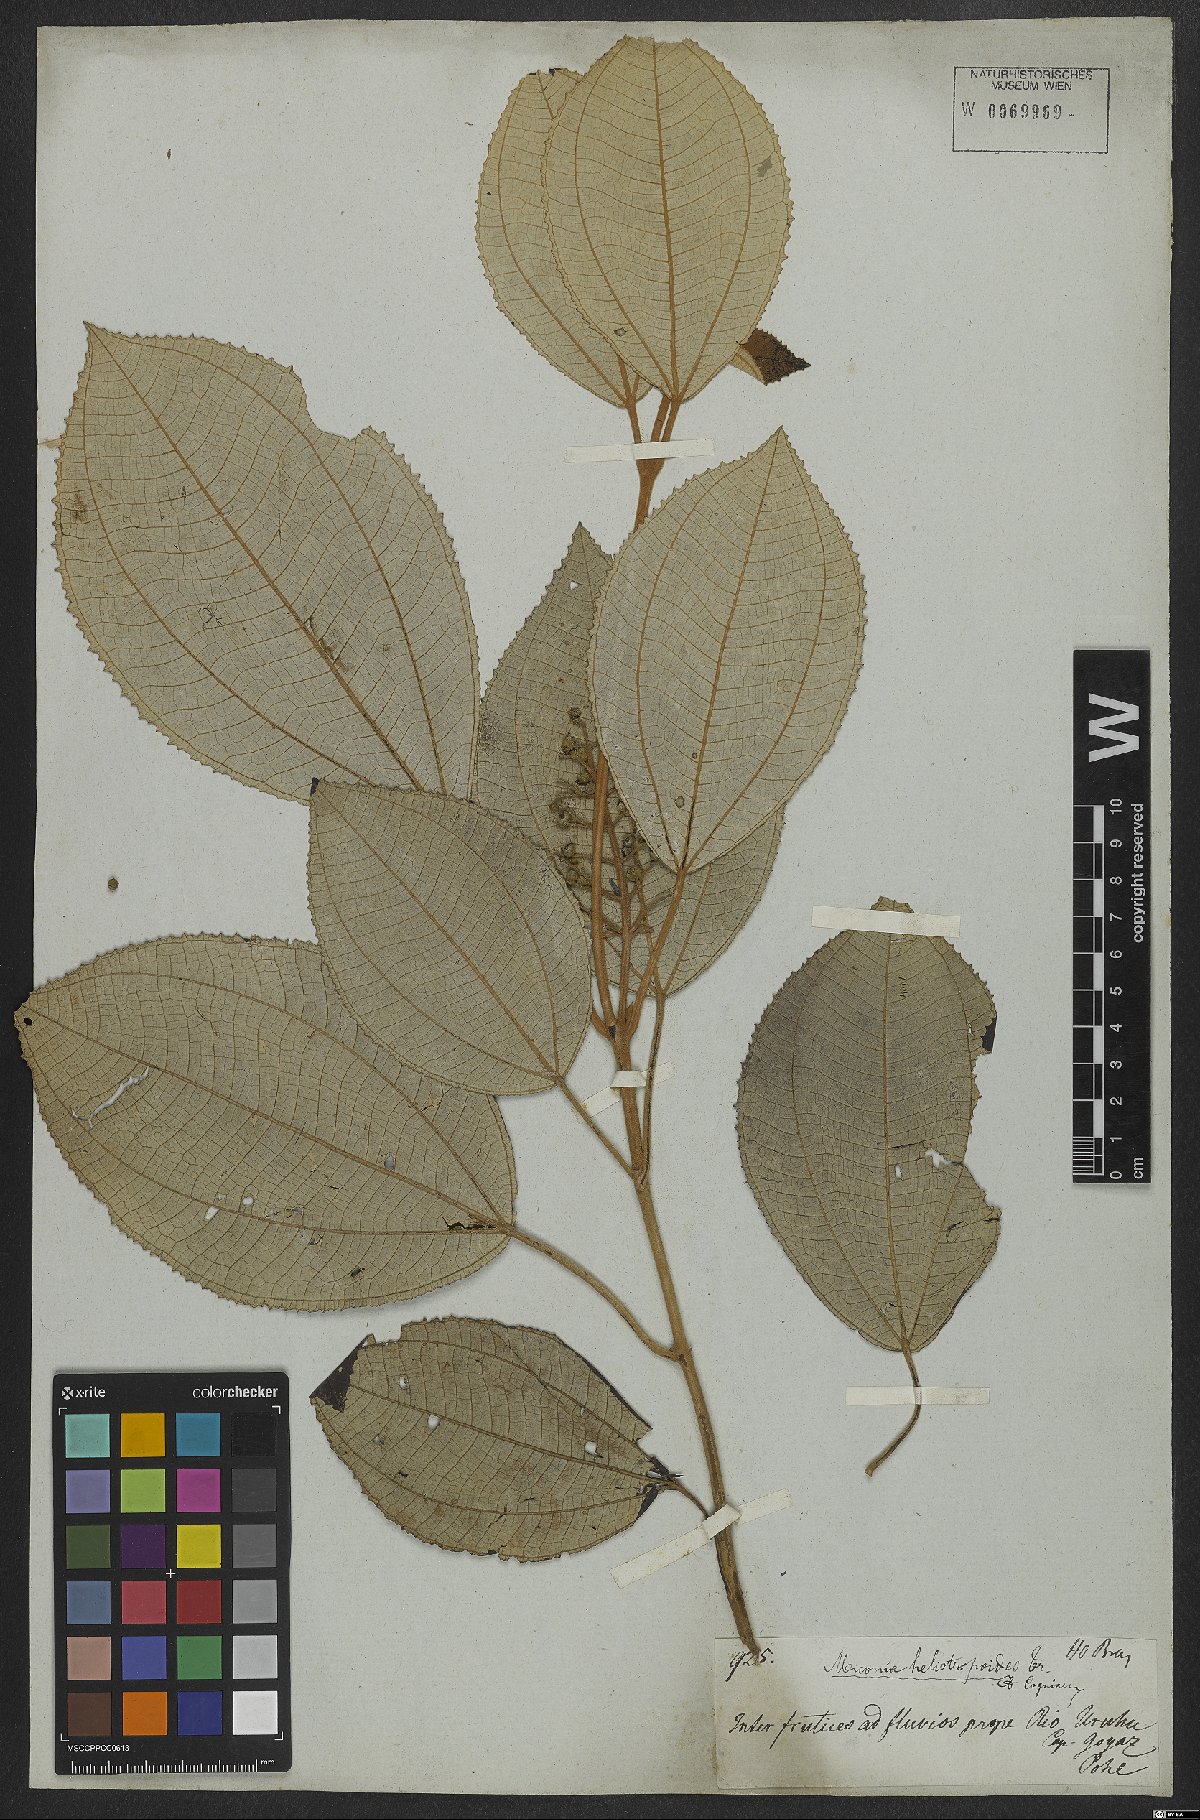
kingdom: Plantae
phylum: Tracheophyta
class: Magnoliopsida
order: Myrtales
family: Melastomataceae
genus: Miconia
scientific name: Miconia heliotropoides
